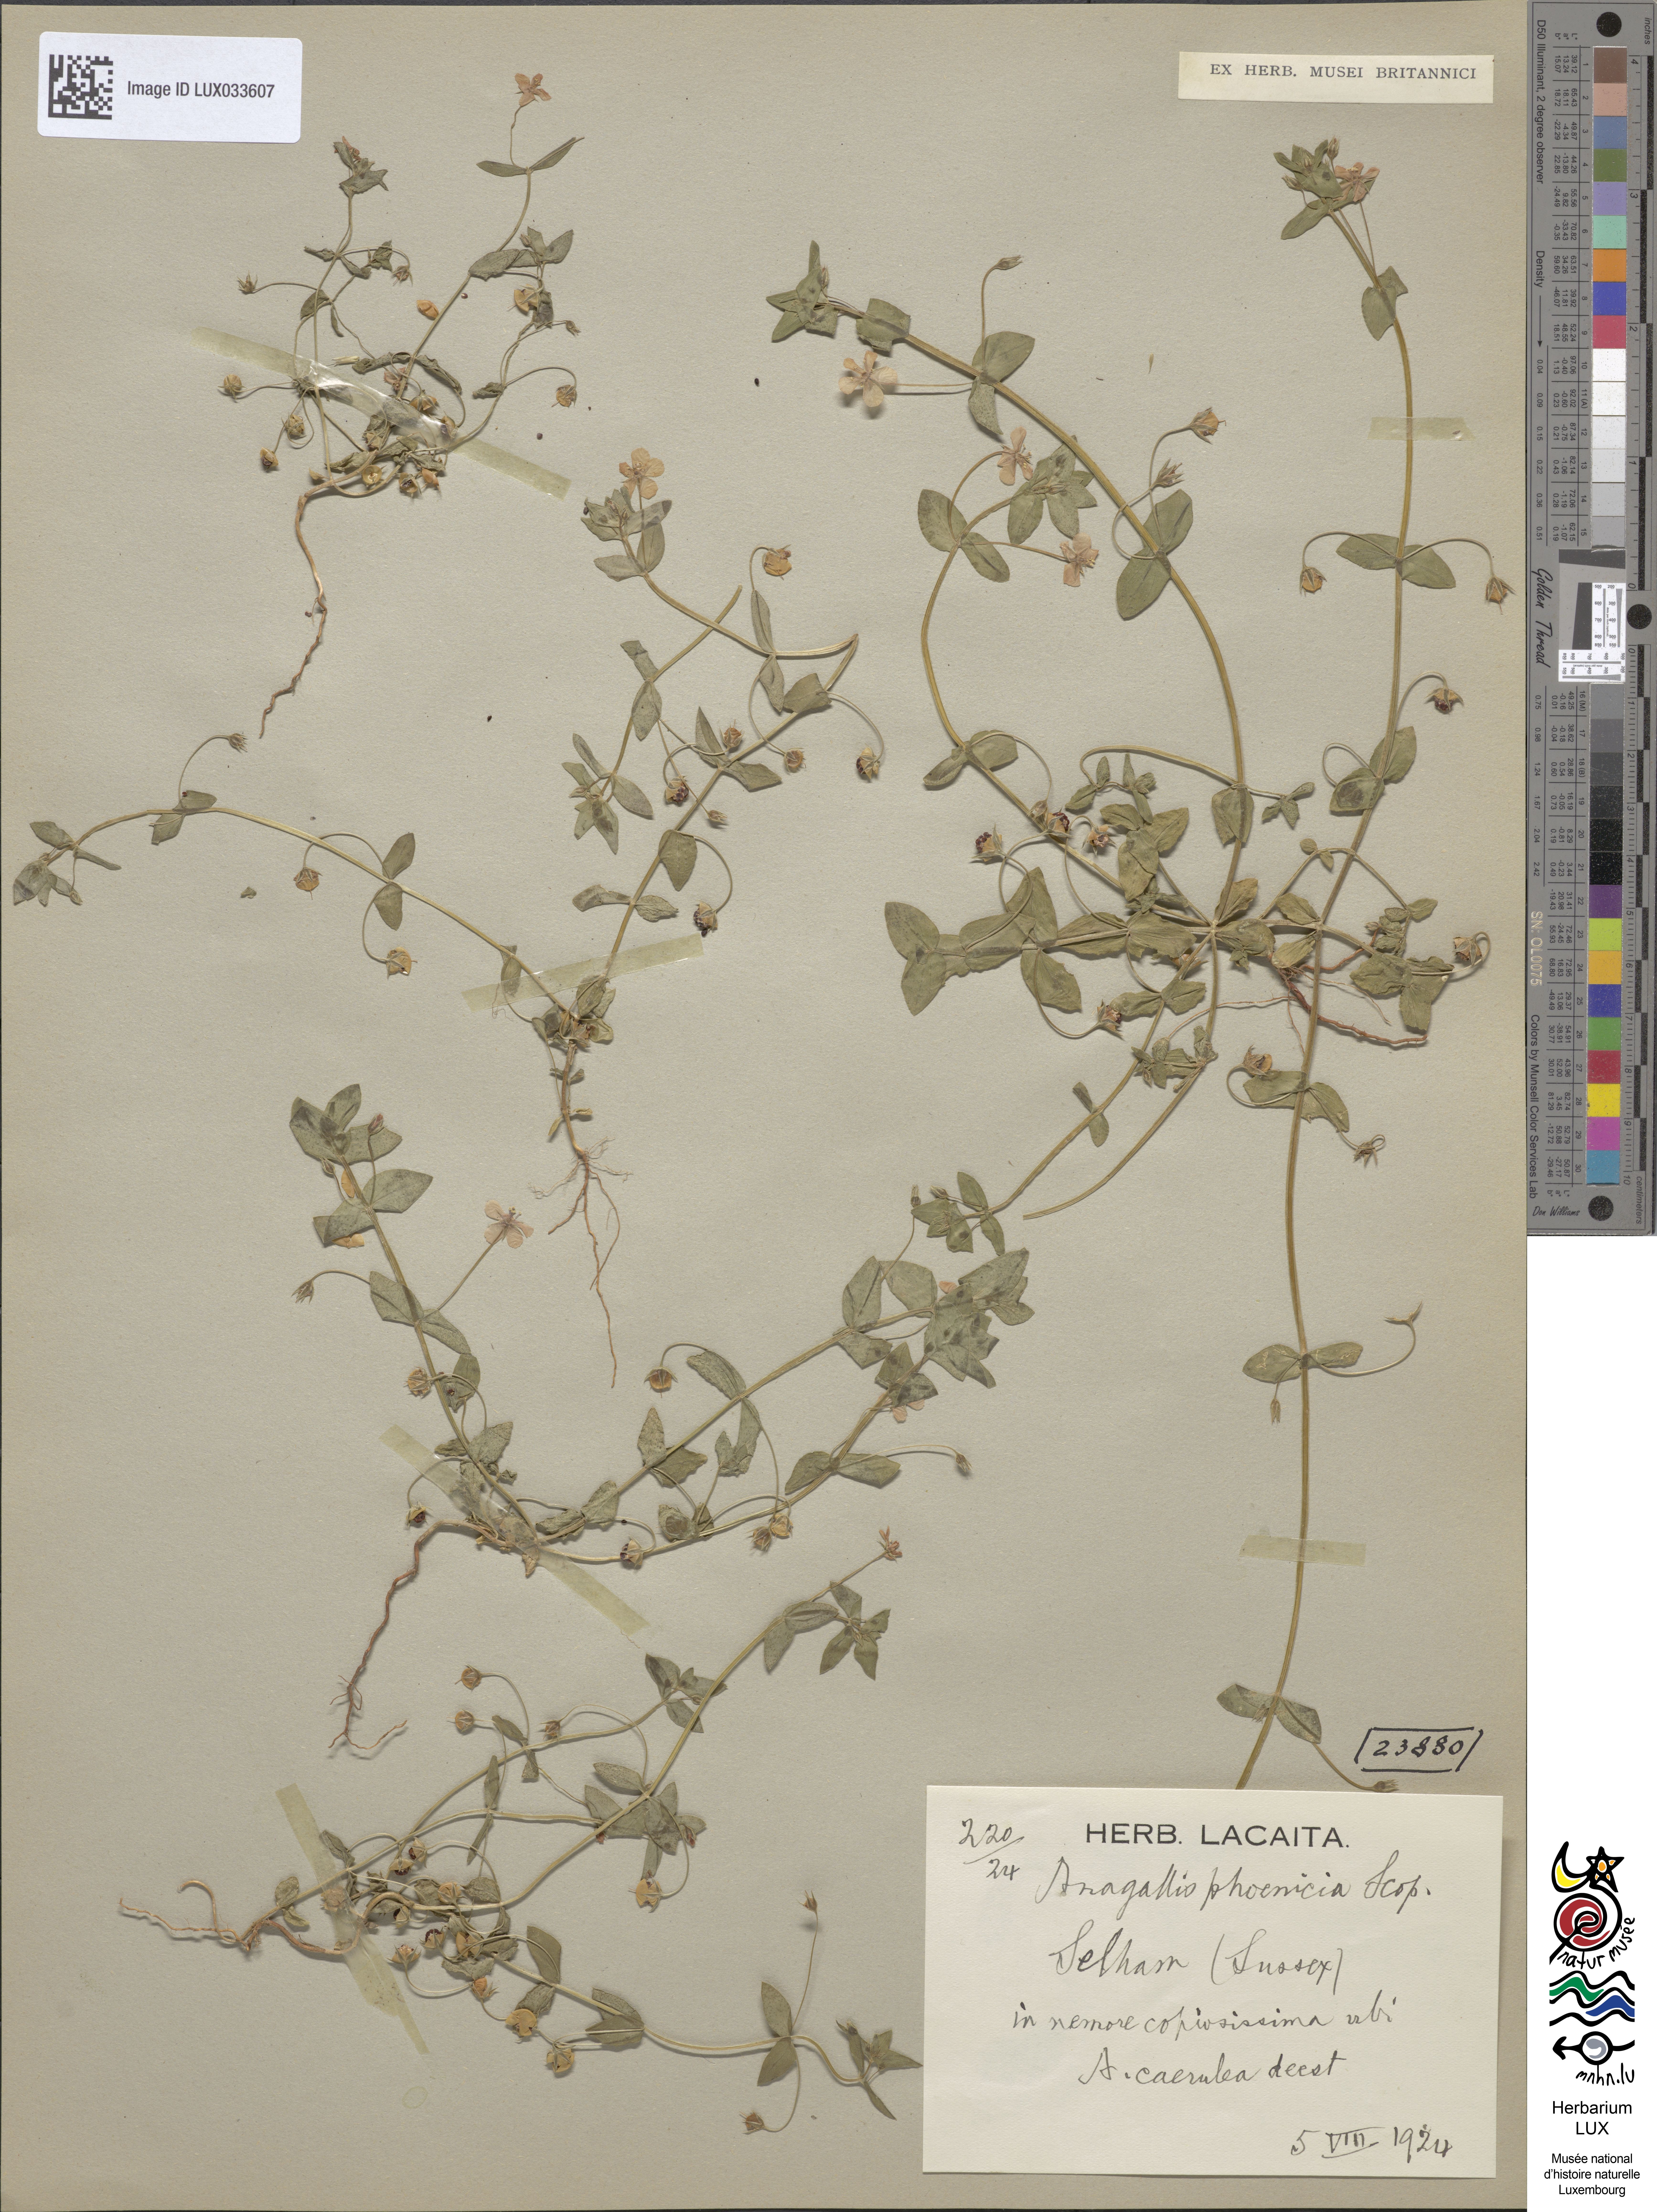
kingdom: Plantae
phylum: Tracheophyta
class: Magnoliopsida
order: Ericales
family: Primulaceae
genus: Lysimachia
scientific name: Lysimachia arvensis
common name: Scarlet pimpernel
